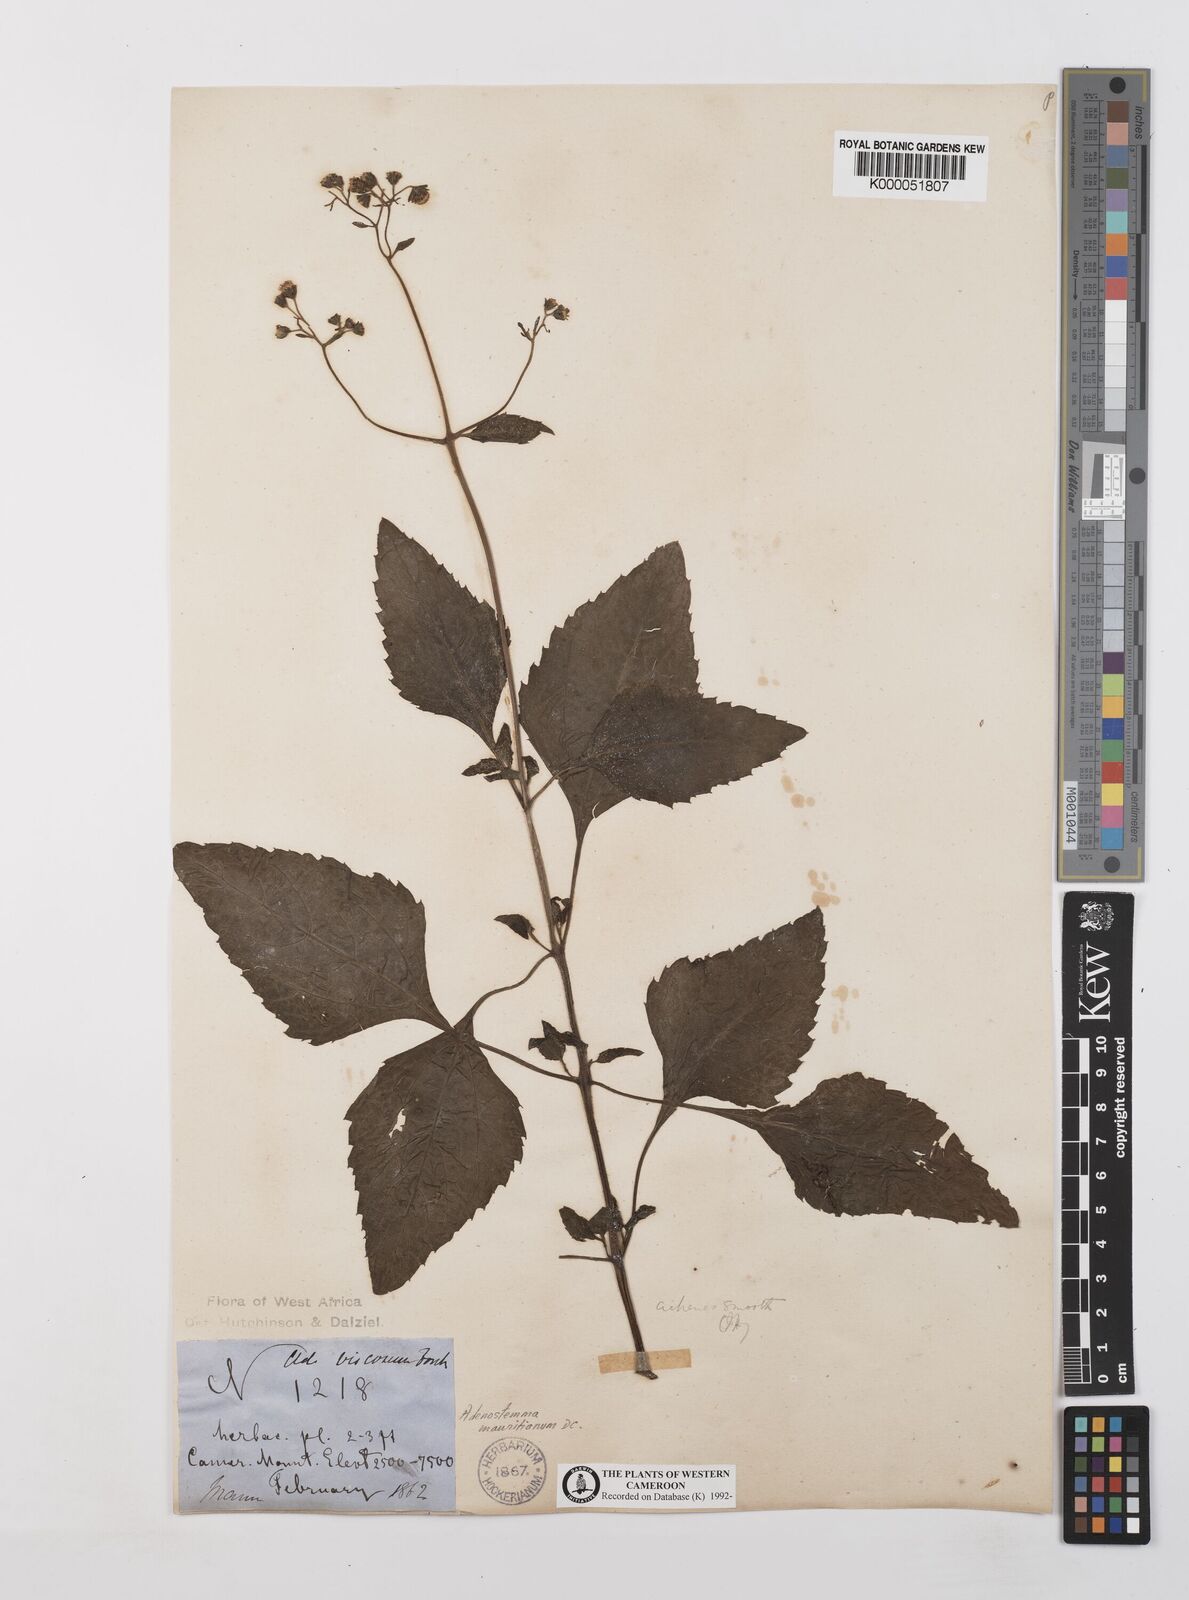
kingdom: Plantae
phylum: Tracheophyta
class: Magnoliopsida
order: Asterales
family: Asteraceae
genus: Adenostemma
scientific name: Adenostemma mauritianum
